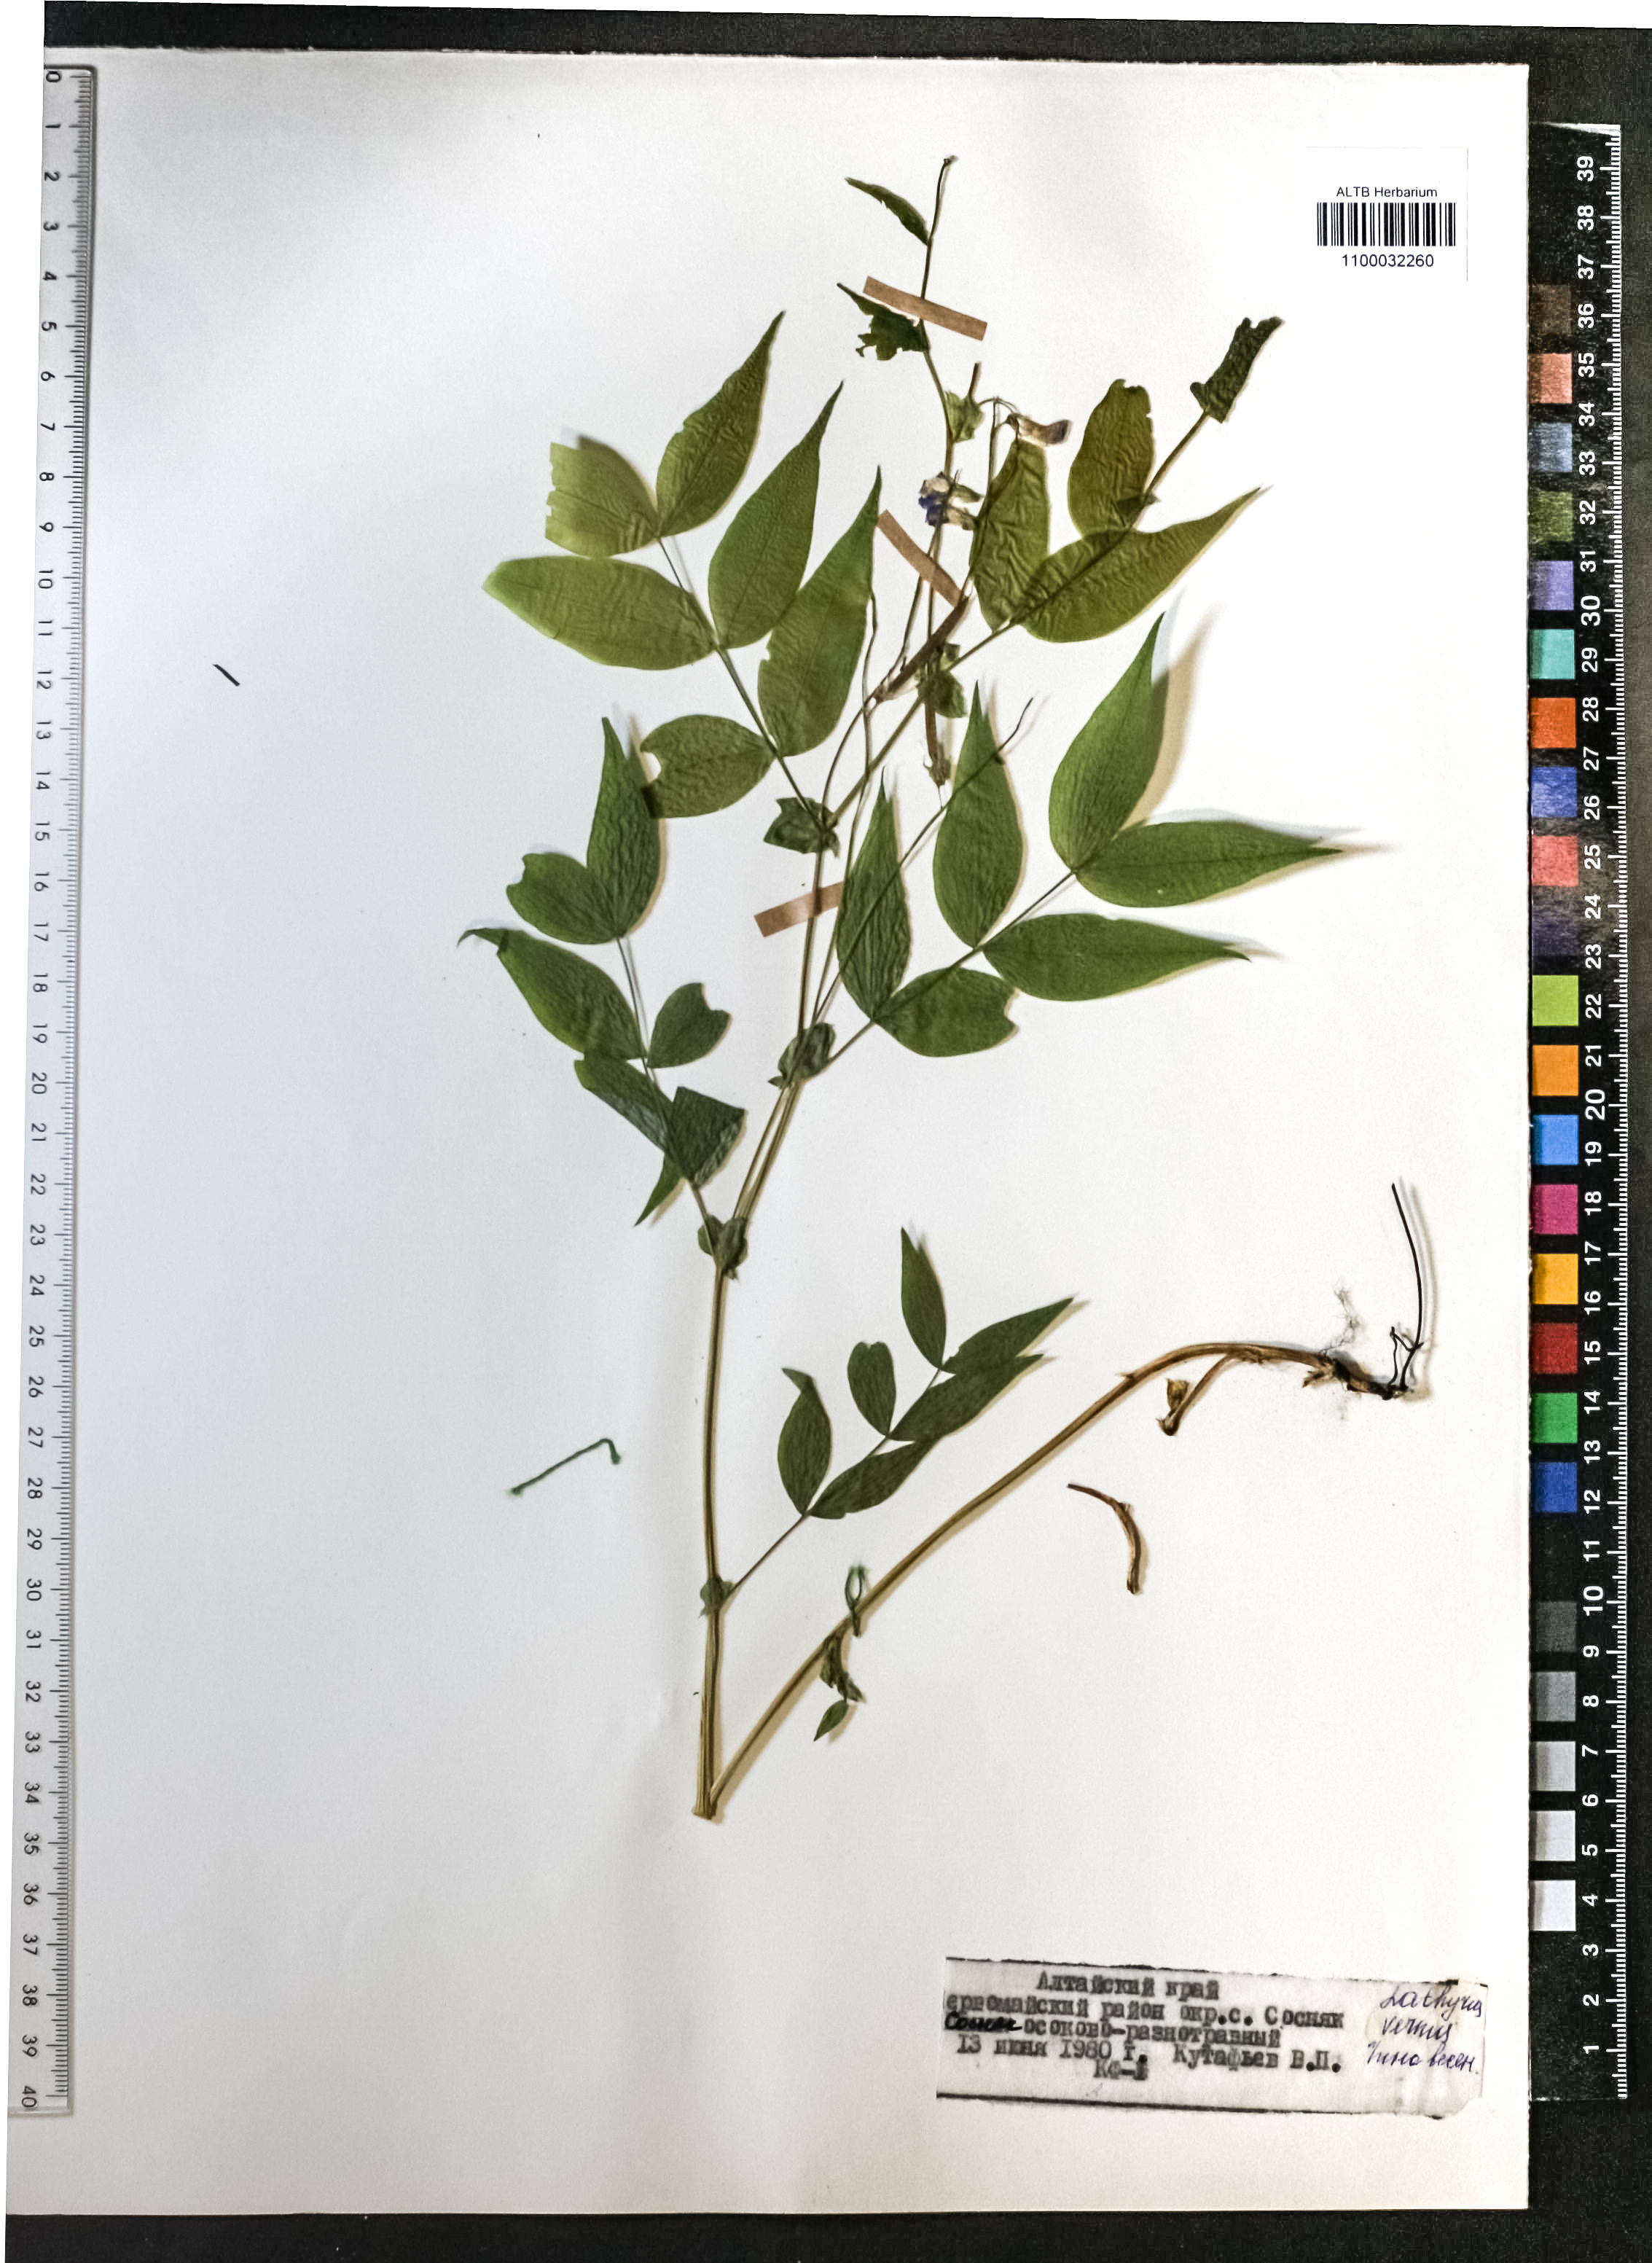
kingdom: Plantae
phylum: Tracheophyta
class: Magnoliopsida
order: Fabales
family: Fabaceae
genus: Lathyrus
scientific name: Lathyrus vernus
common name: Spring pea
